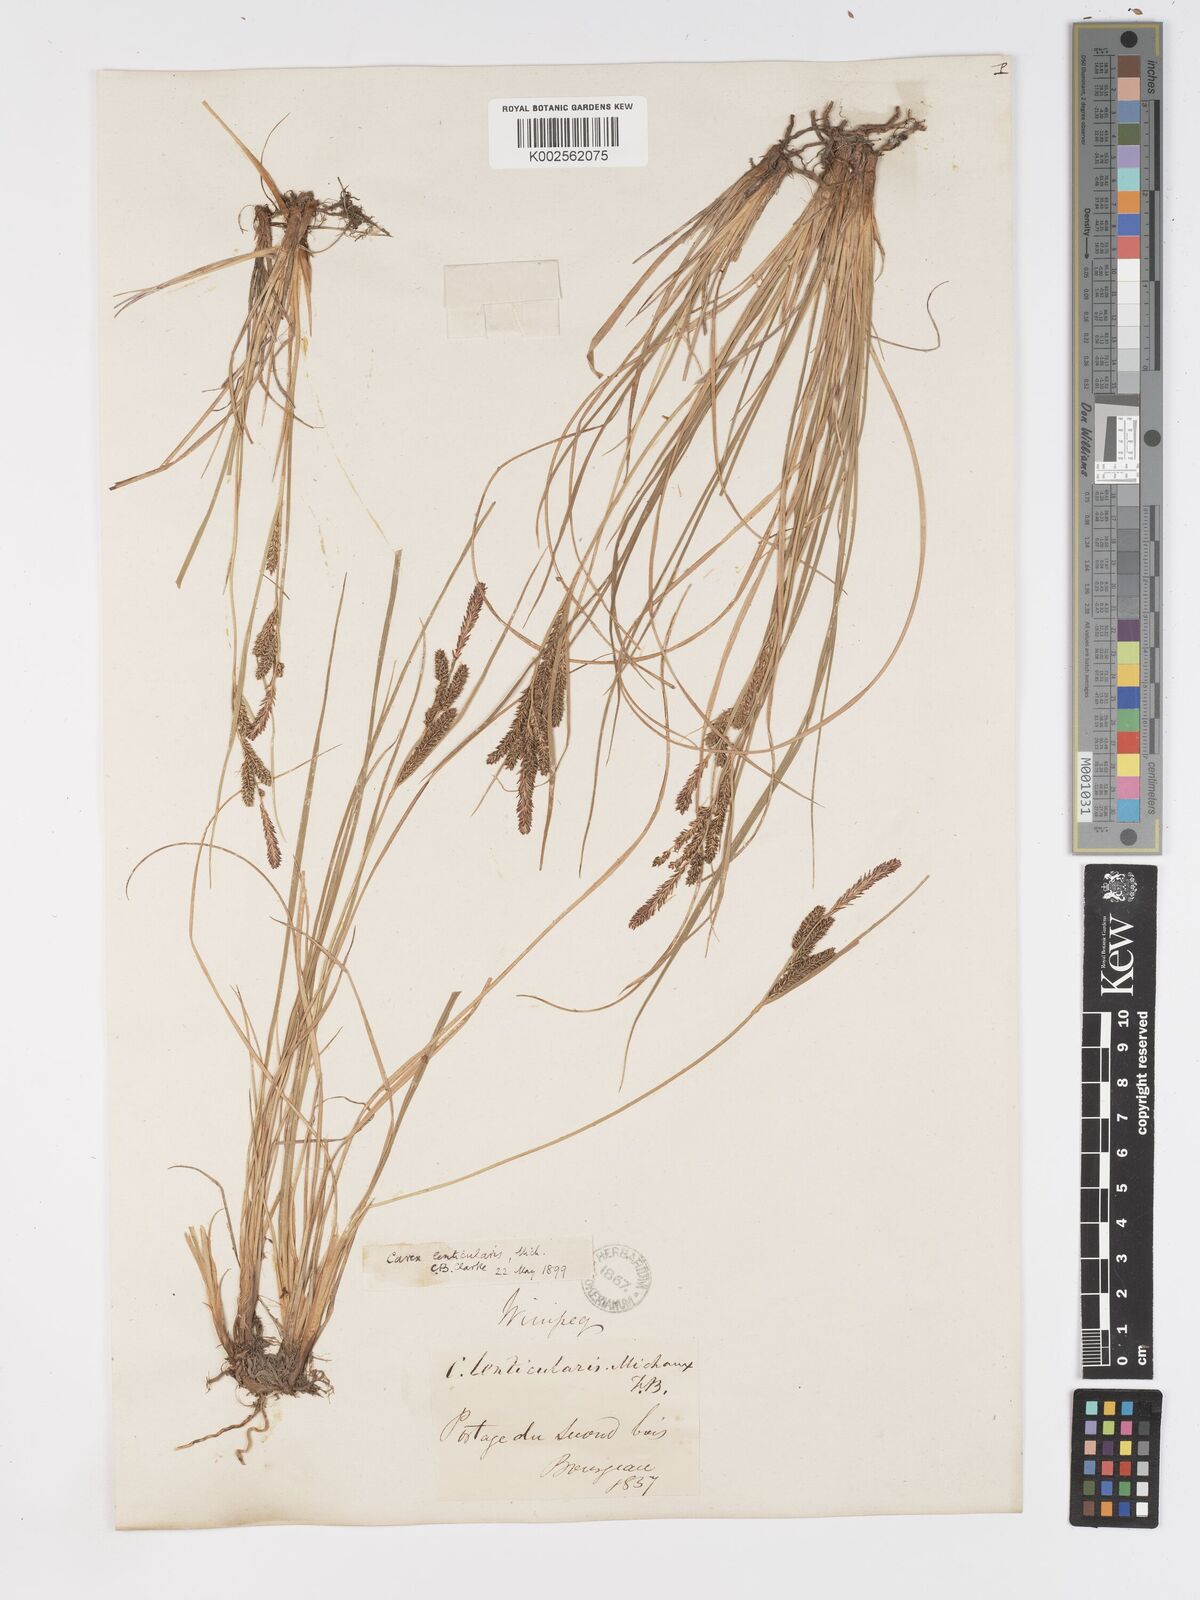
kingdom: Plantae
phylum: Tracheophyta
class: Liliopsida
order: Poales
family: Cyperaceae
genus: Carex
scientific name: Carex lenticularis
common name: Lakeshore sedge
